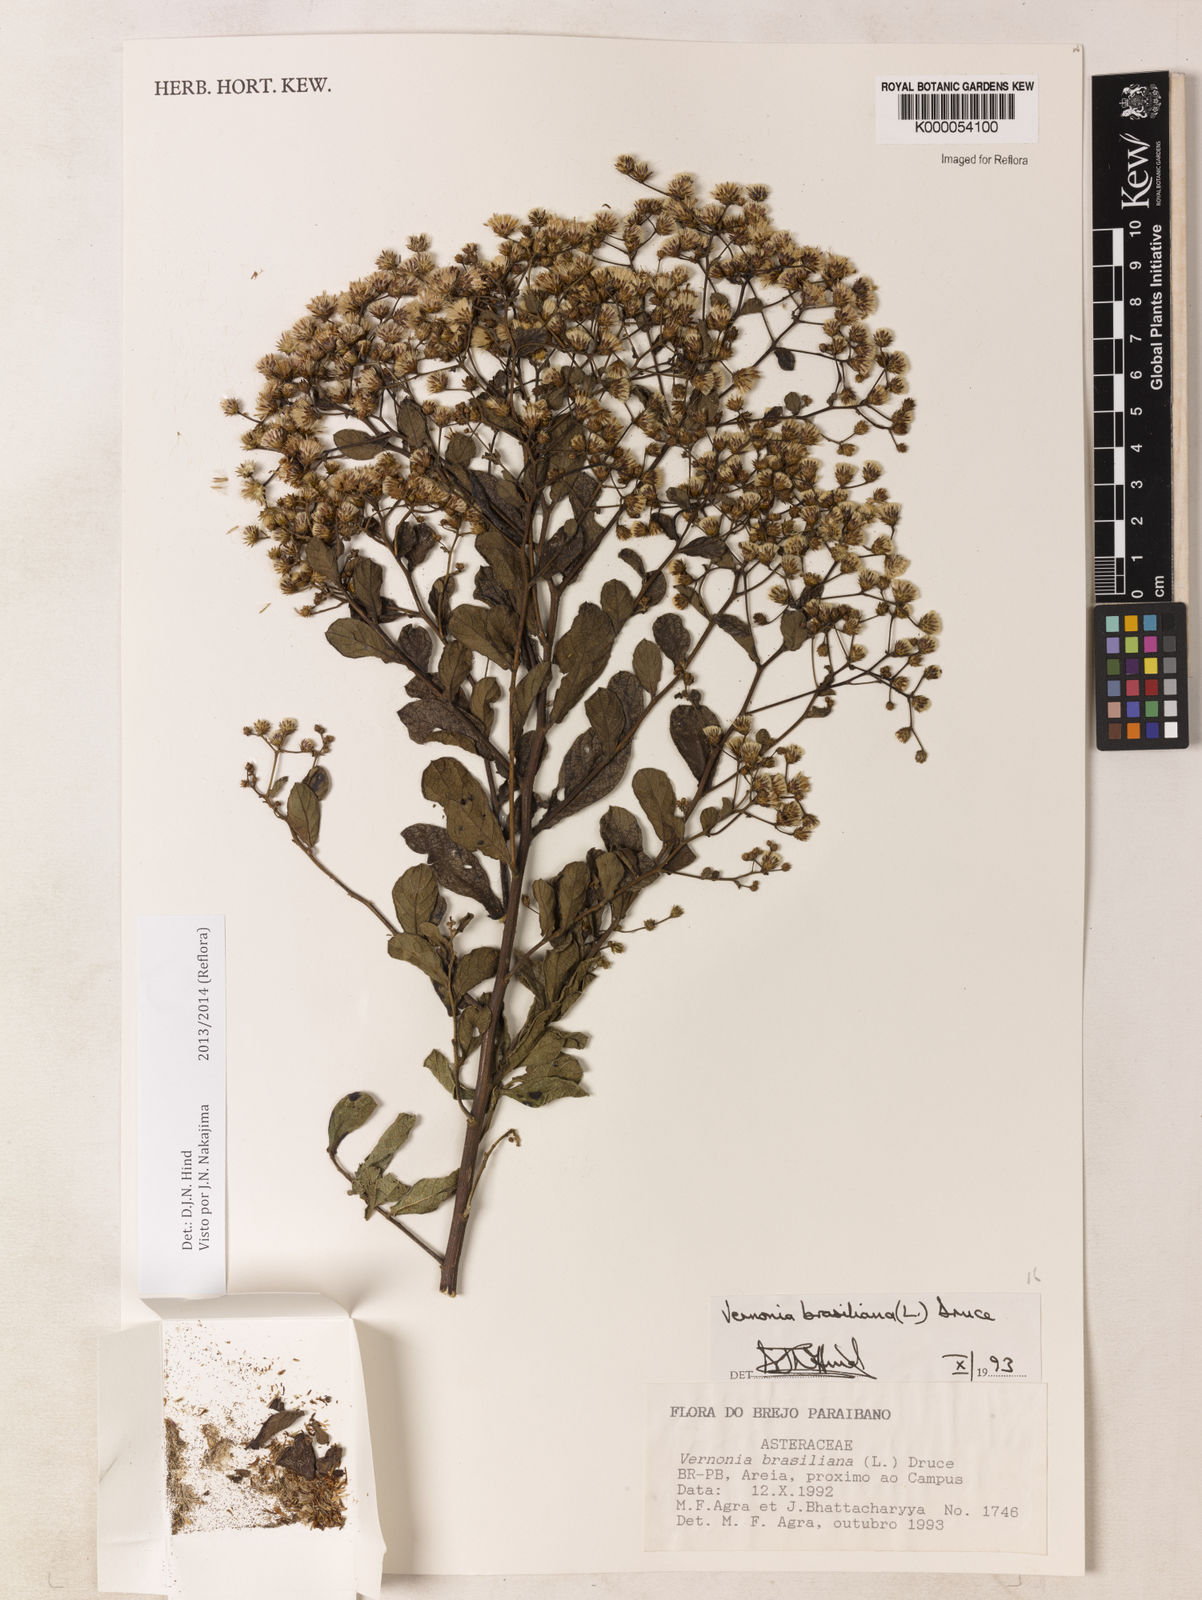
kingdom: Plantae
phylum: Tracheophyta
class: Magnoliopsida
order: Asterales
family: Asteraceae
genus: Vernonanthura
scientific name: Vernonanthura brasiliana
